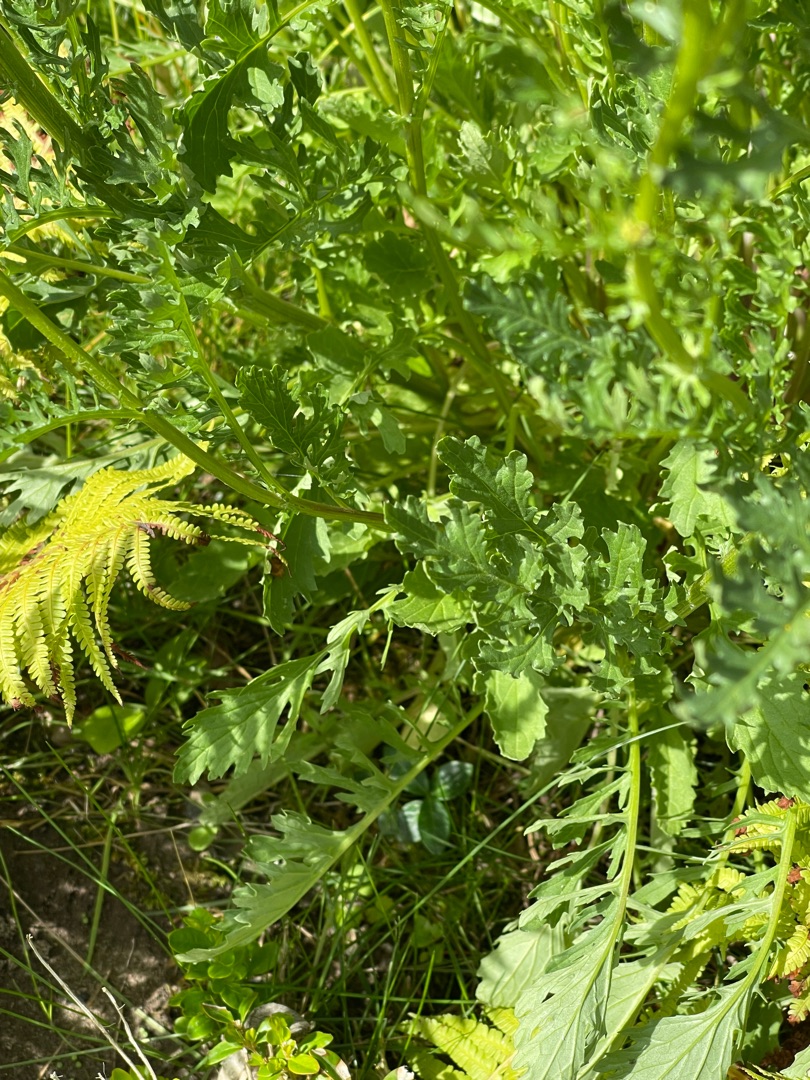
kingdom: Plantae
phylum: Tracheophyta
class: Magnoliopsida
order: Asterales
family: Asteraceae
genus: Jacobaea
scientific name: Jacobaea vulgaris
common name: Eng-brandbæger
